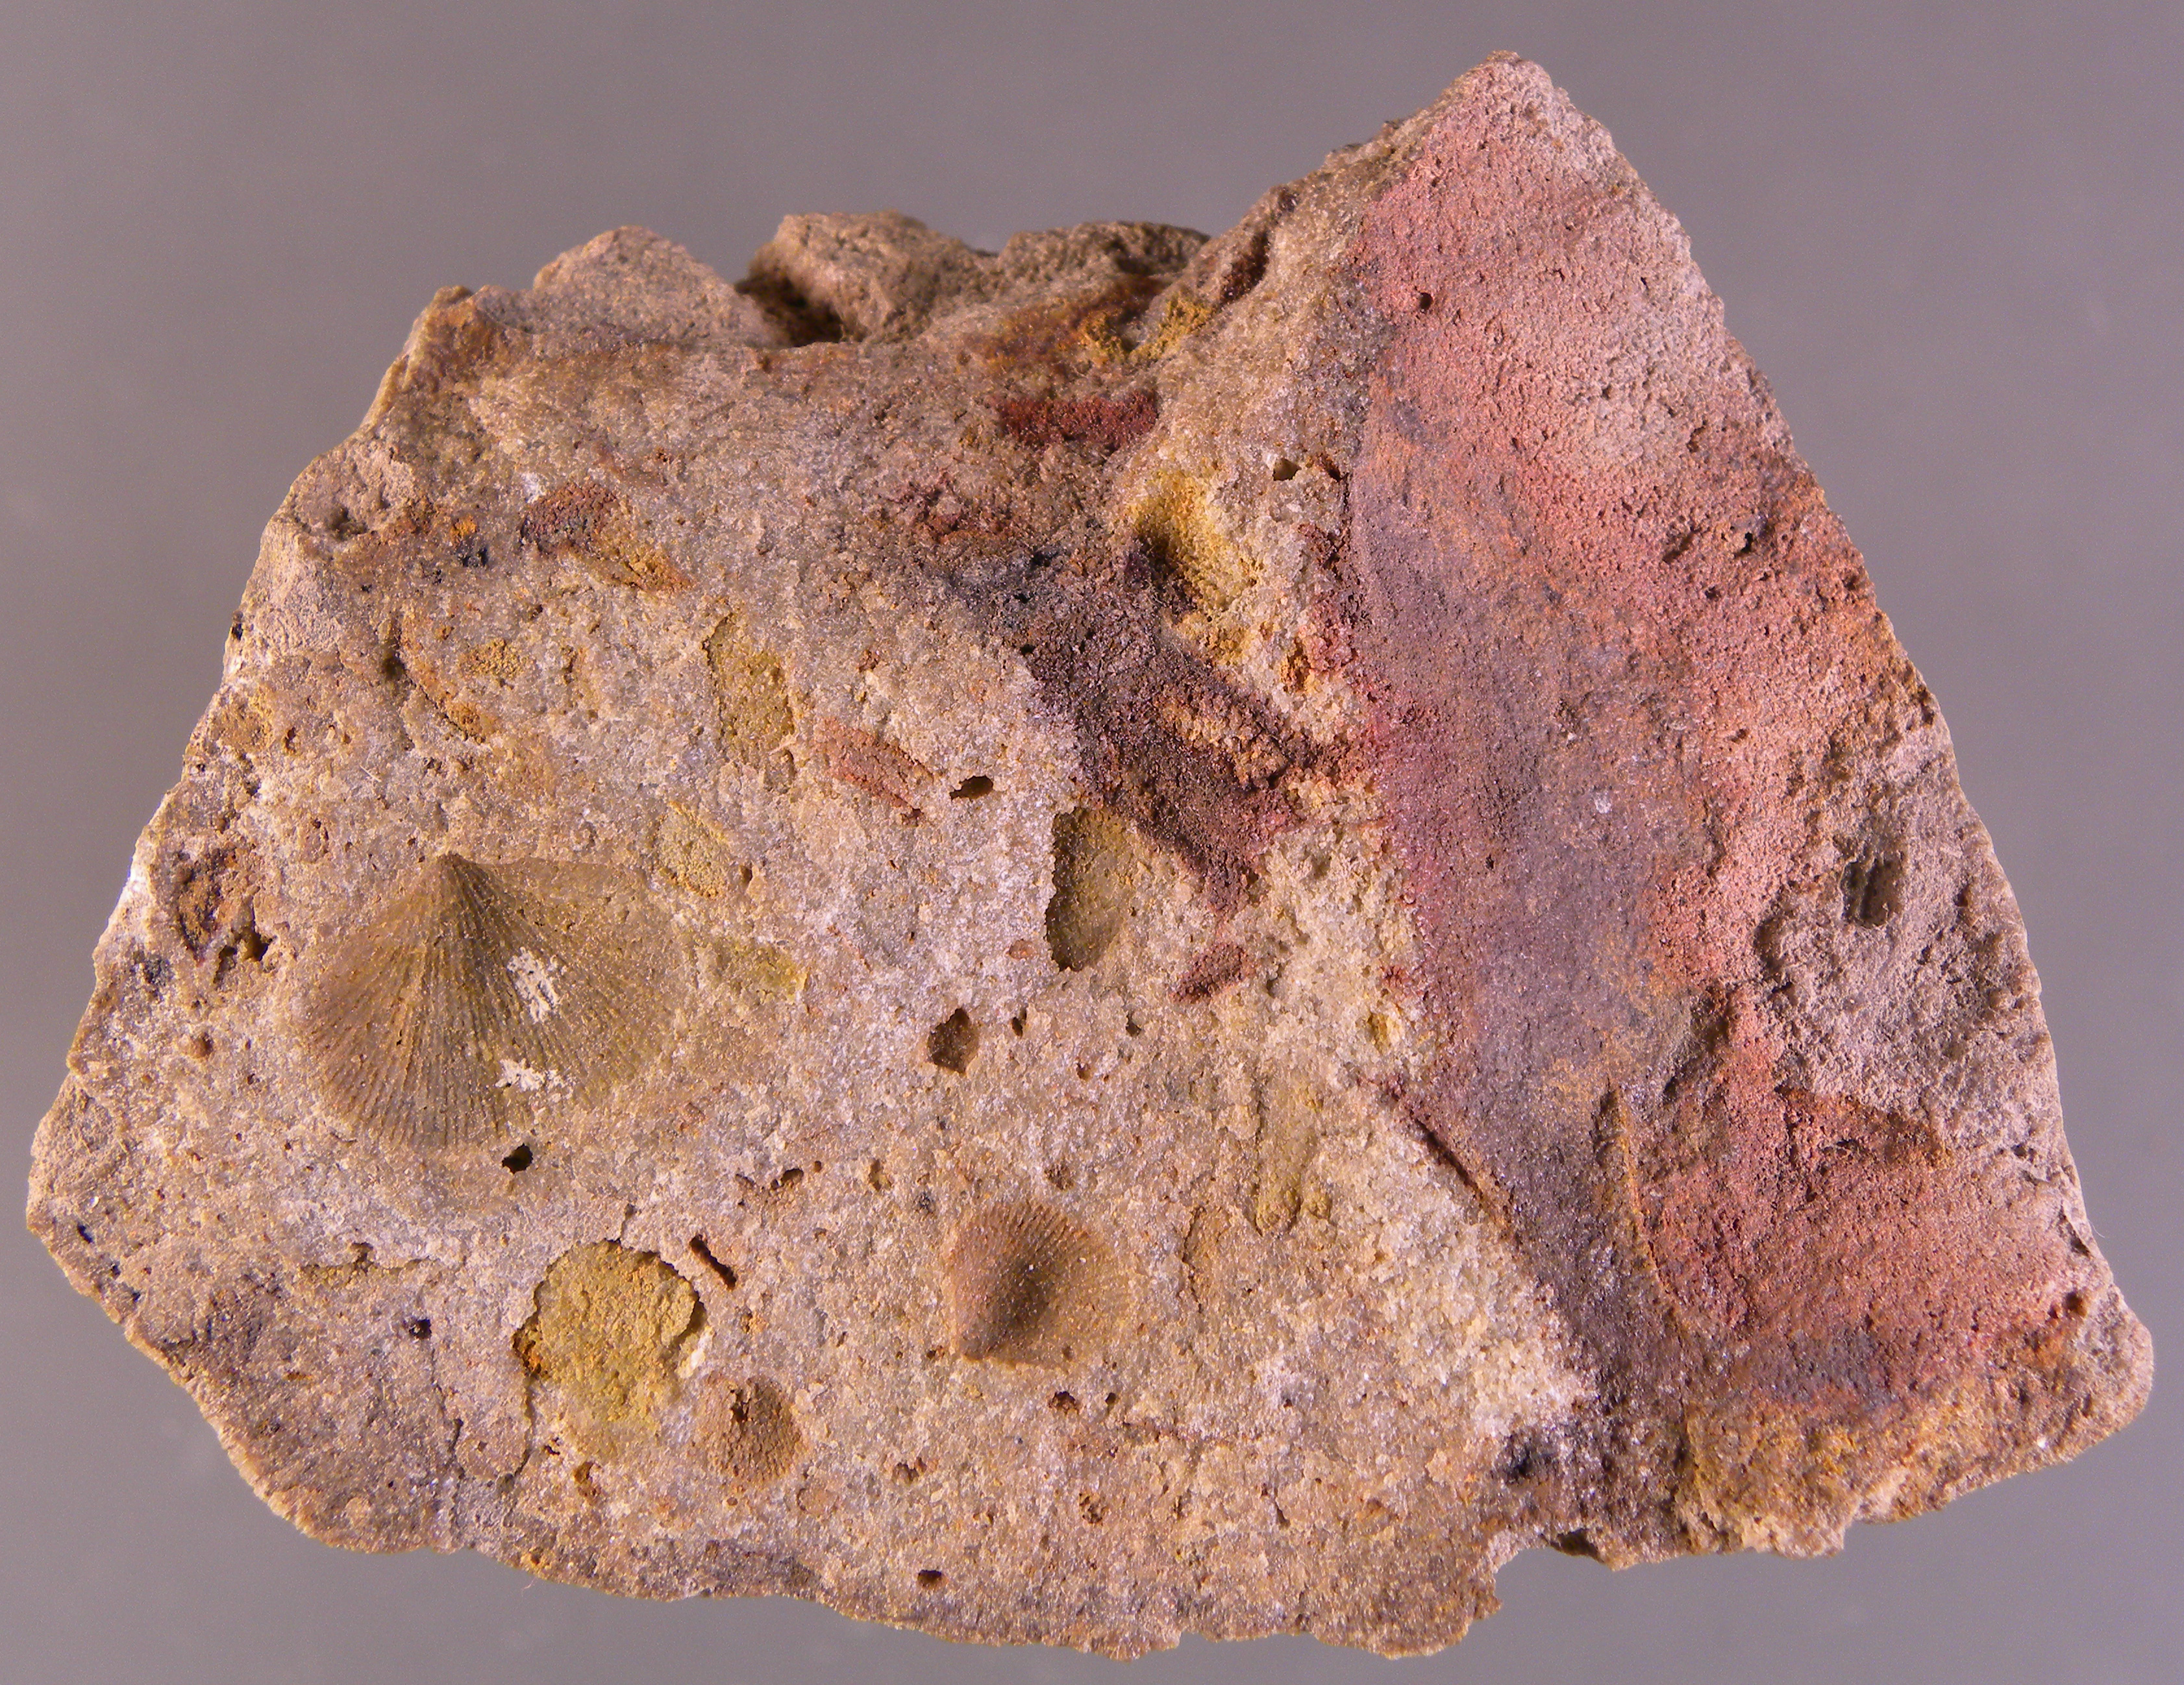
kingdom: Animalia
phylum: Brachiopoda
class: Rhynchonellata
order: Terebratulida
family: Mutationellidae
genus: Mutationella
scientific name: Mutationella
